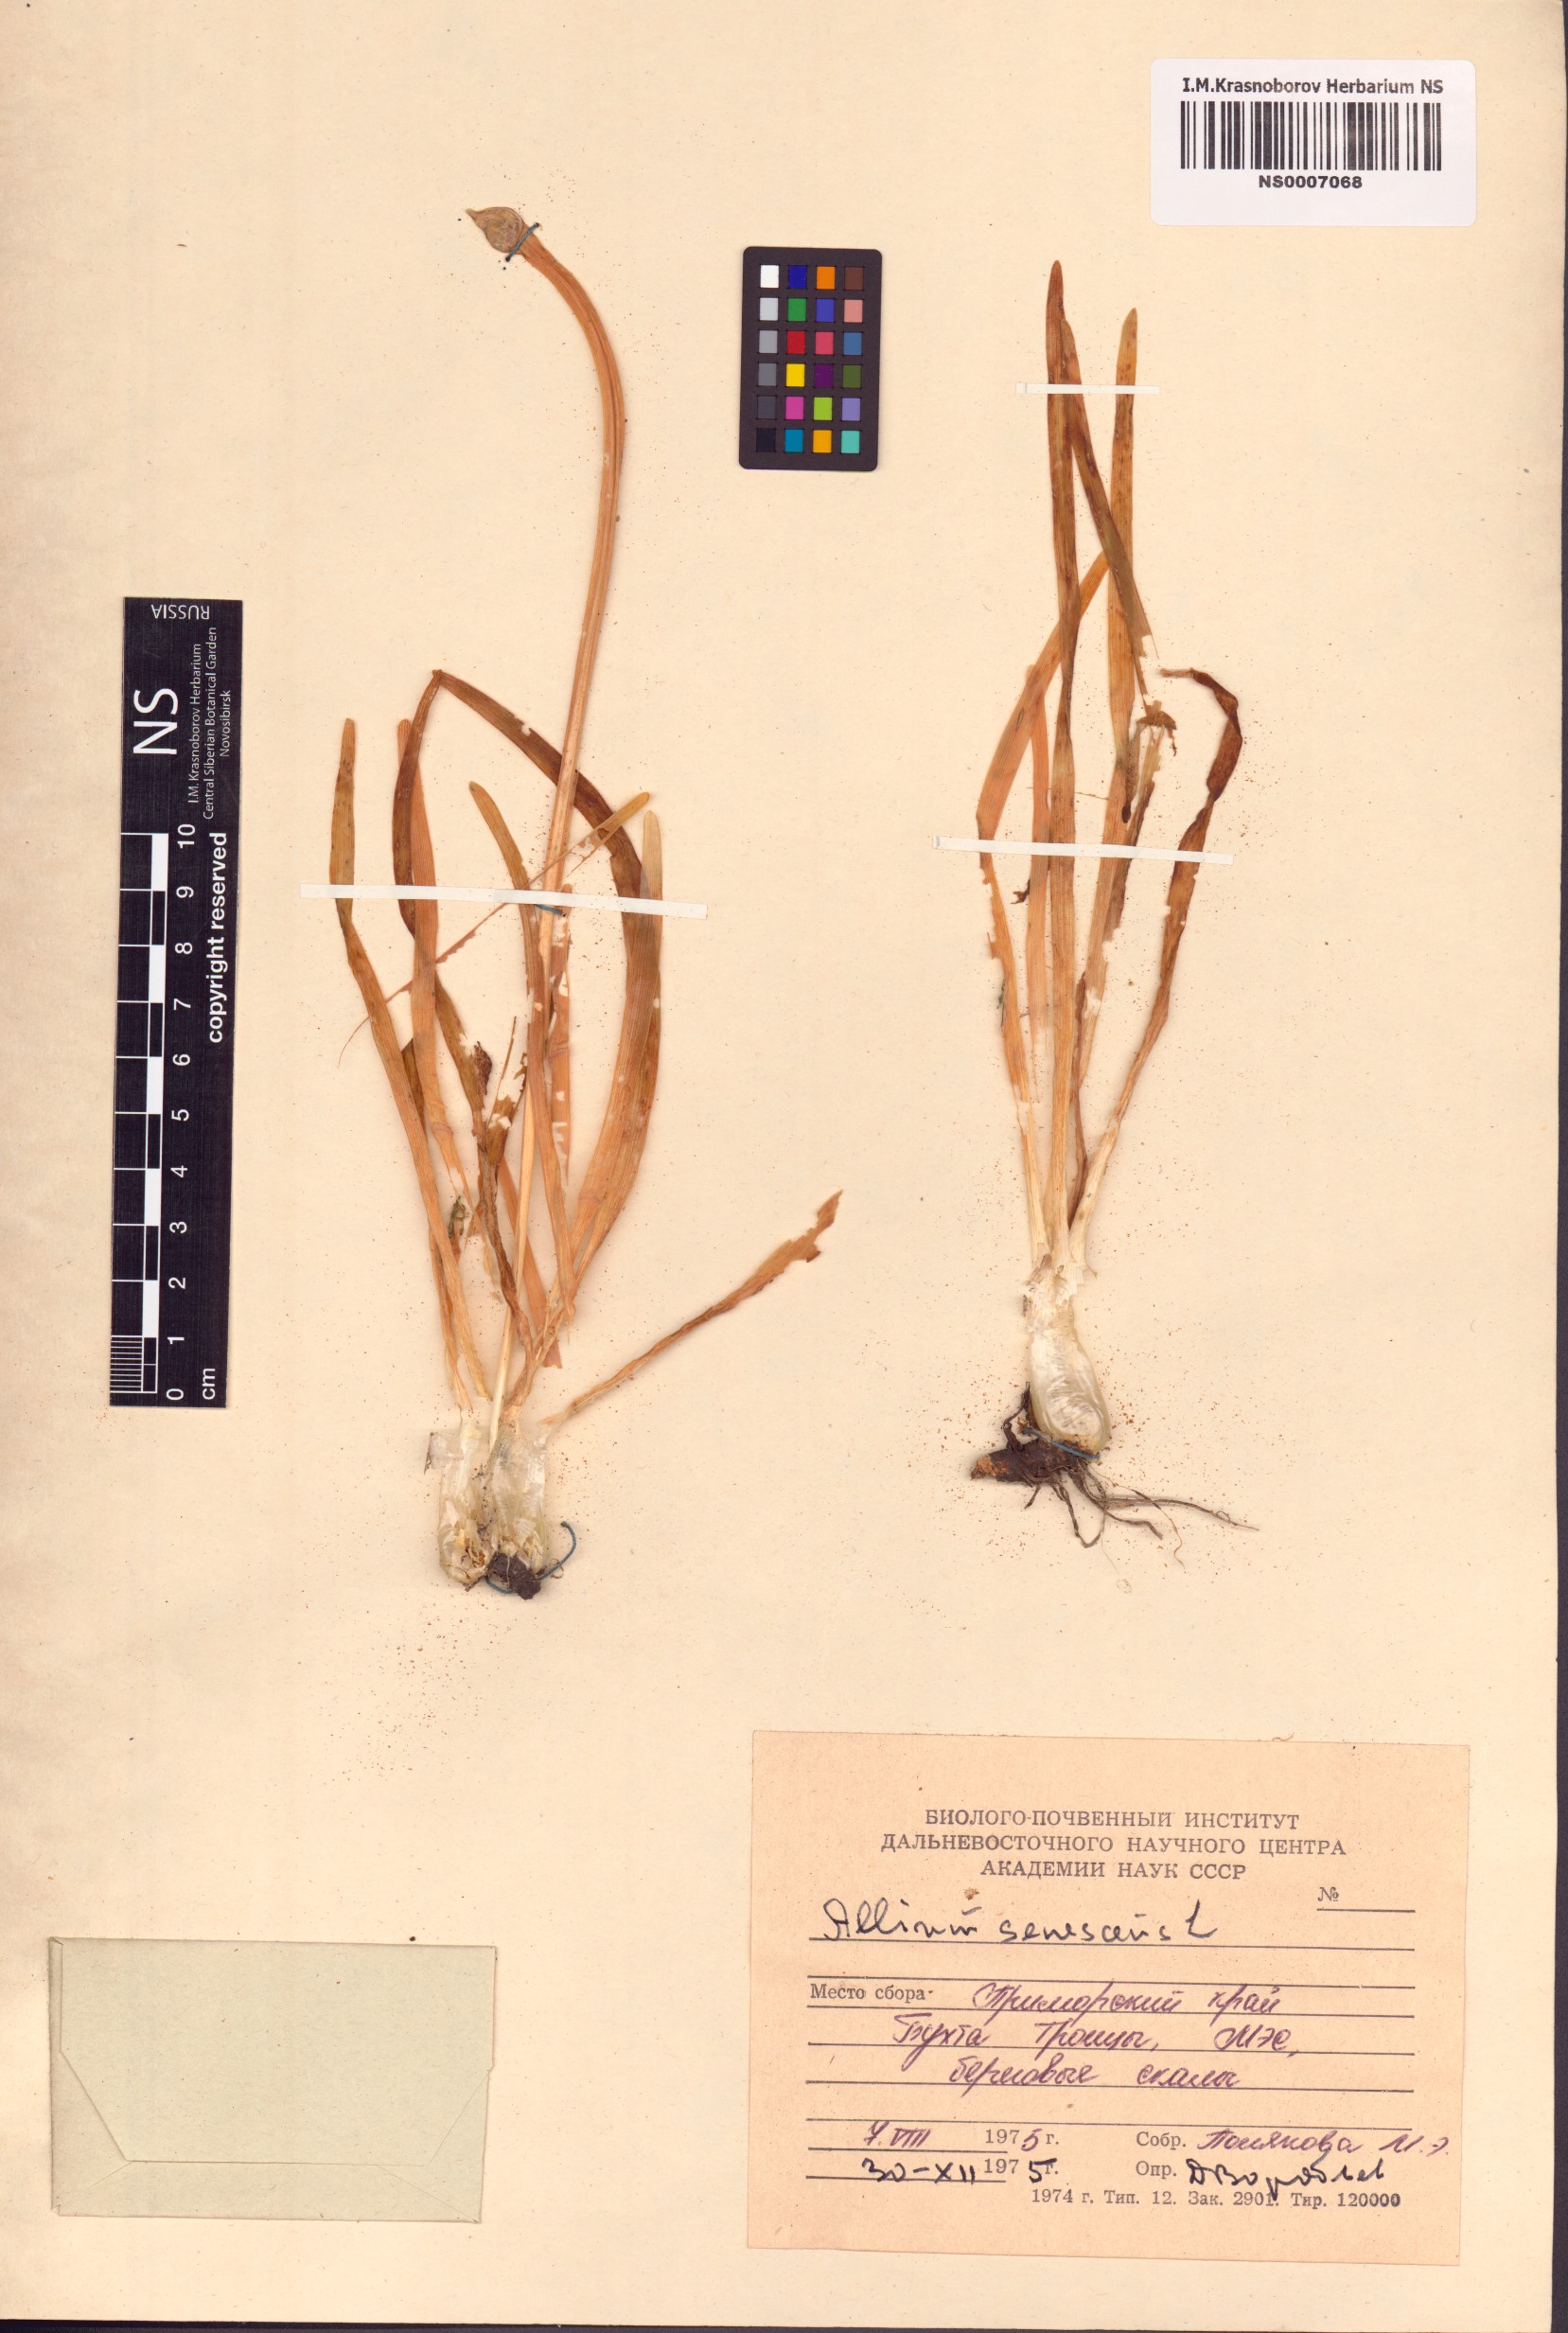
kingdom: Plantae
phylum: Tracheophyta
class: Liliopsida
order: Asparagales
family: Amaryllidaceae
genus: Allium
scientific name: Allium senescens
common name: German garlic
